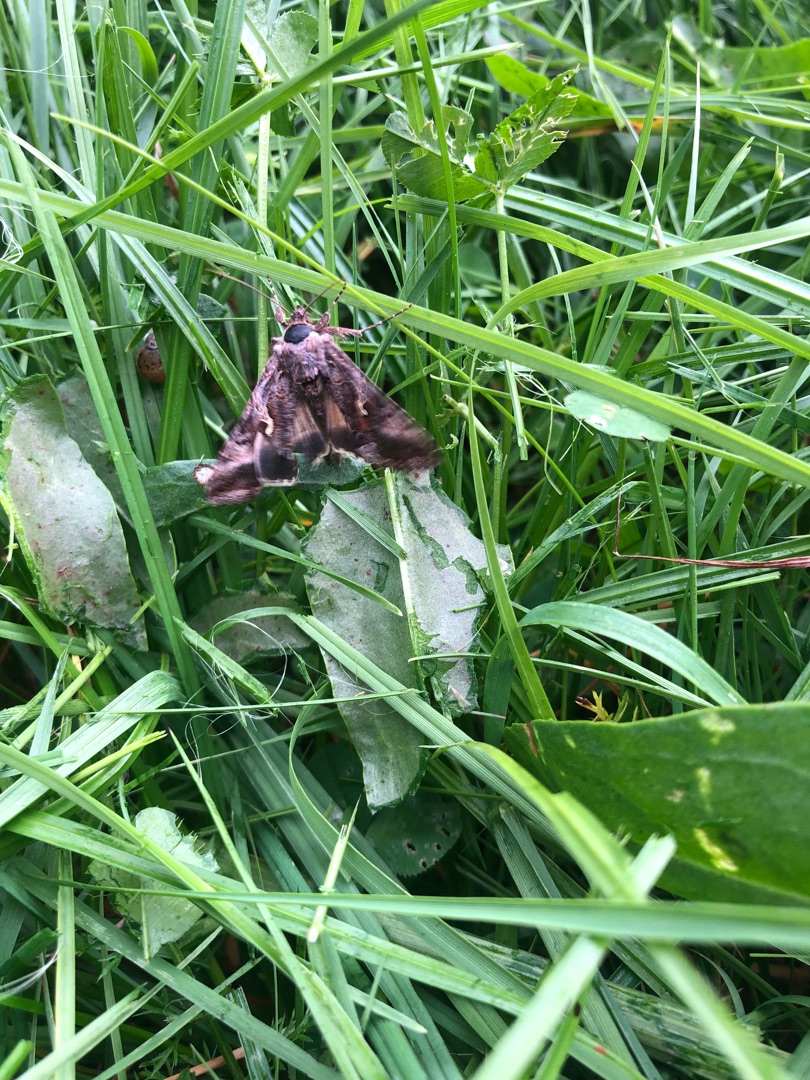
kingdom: Animalia
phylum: Arthropoda
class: Insecta
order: Lepidoptera
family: Noctuidae
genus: Autographa
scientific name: Autographa gamma
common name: Gammaugle
